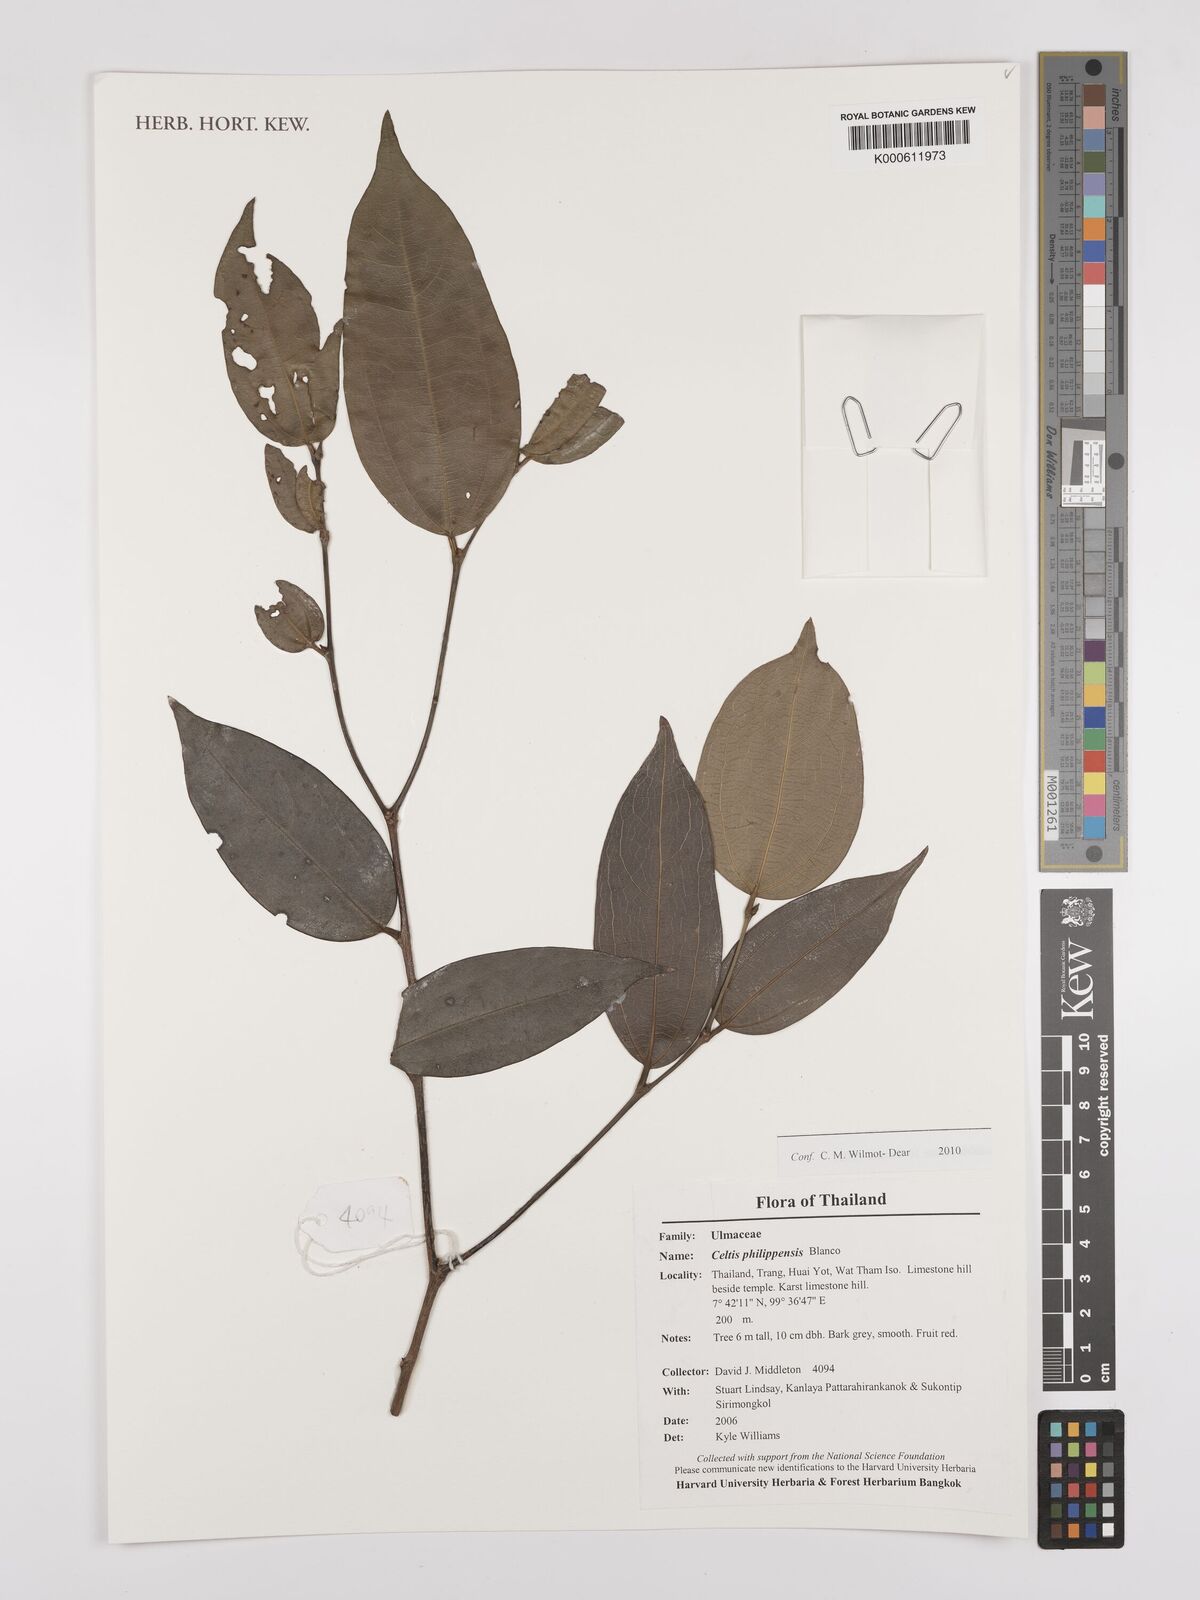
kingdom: Plantae
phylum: Tracheophyta
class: Magnoliopsida
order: Rosales
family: Cannabaceae
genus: Celtis
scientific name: Celtis philippensis
